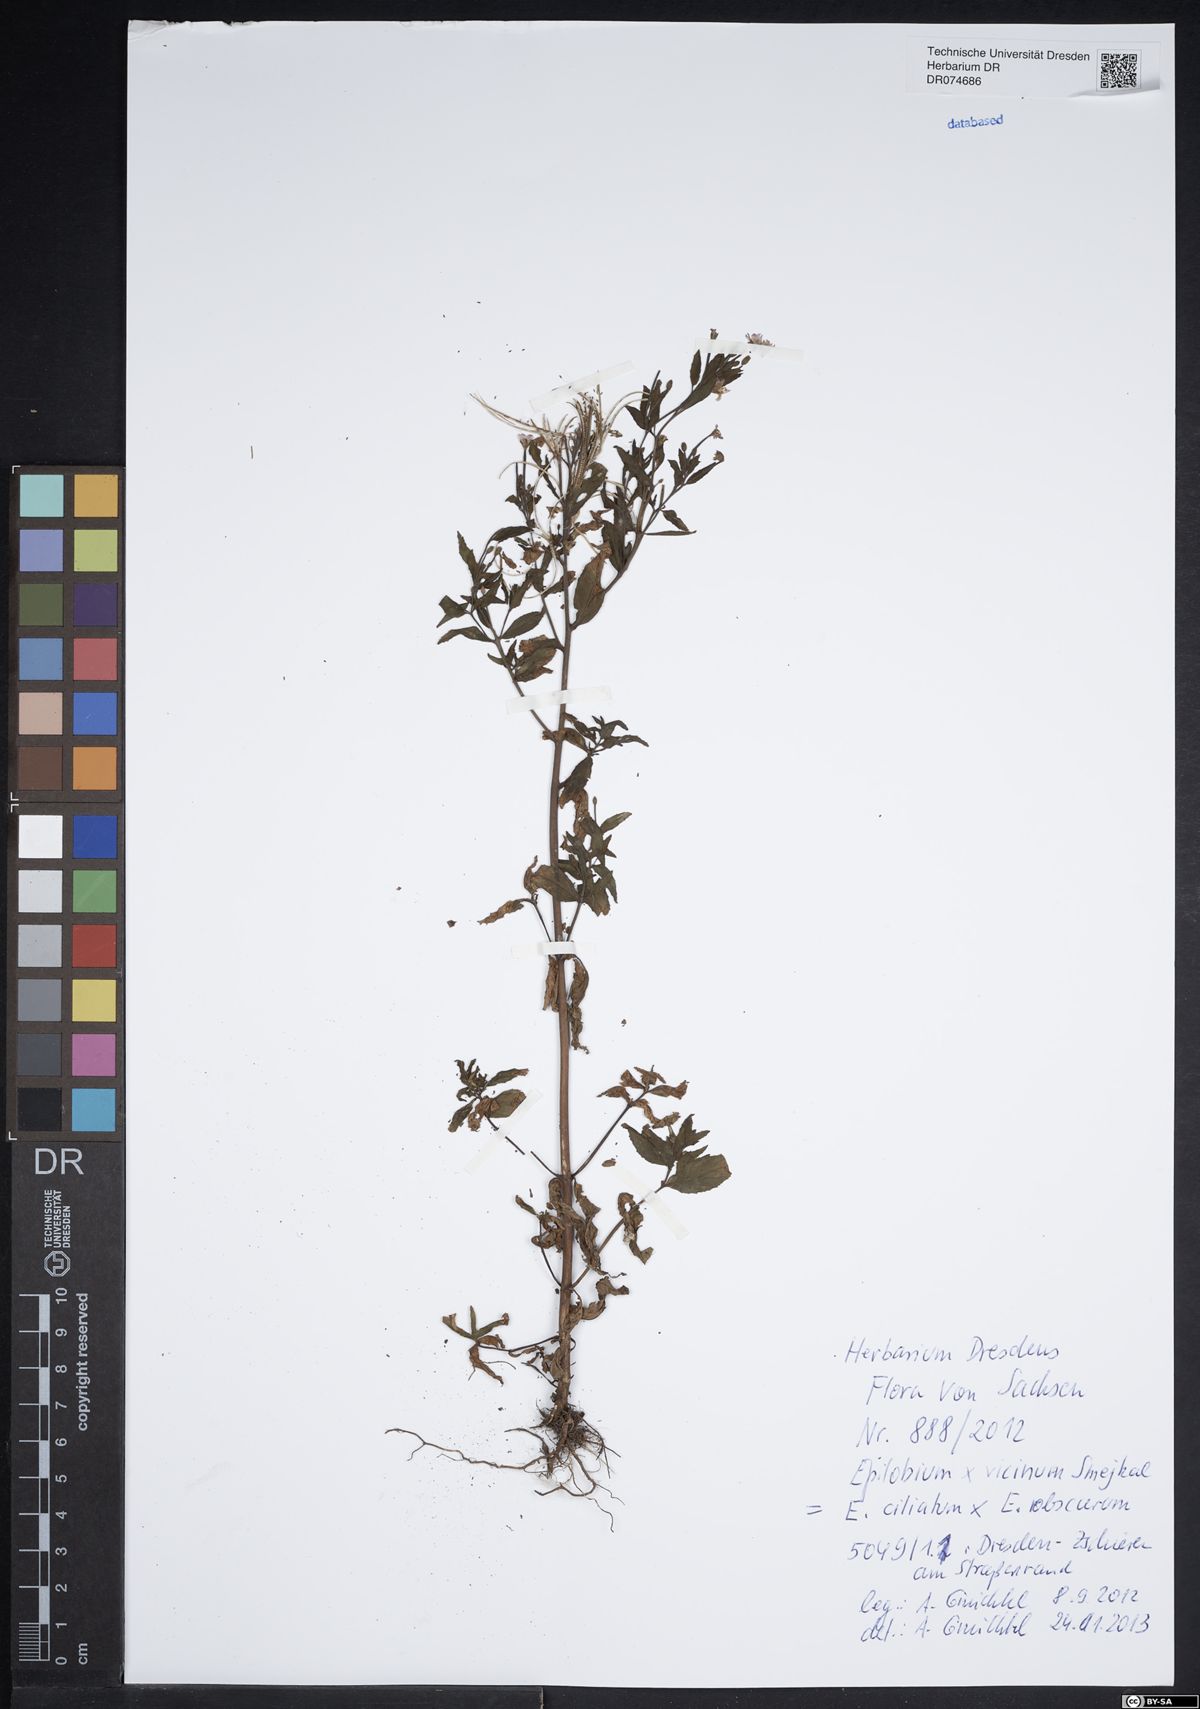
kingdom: Plantae
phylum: Tracheophyta
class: Magnoliopsida
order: Myrtales
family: Onagraceae
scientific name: Onagraceae
